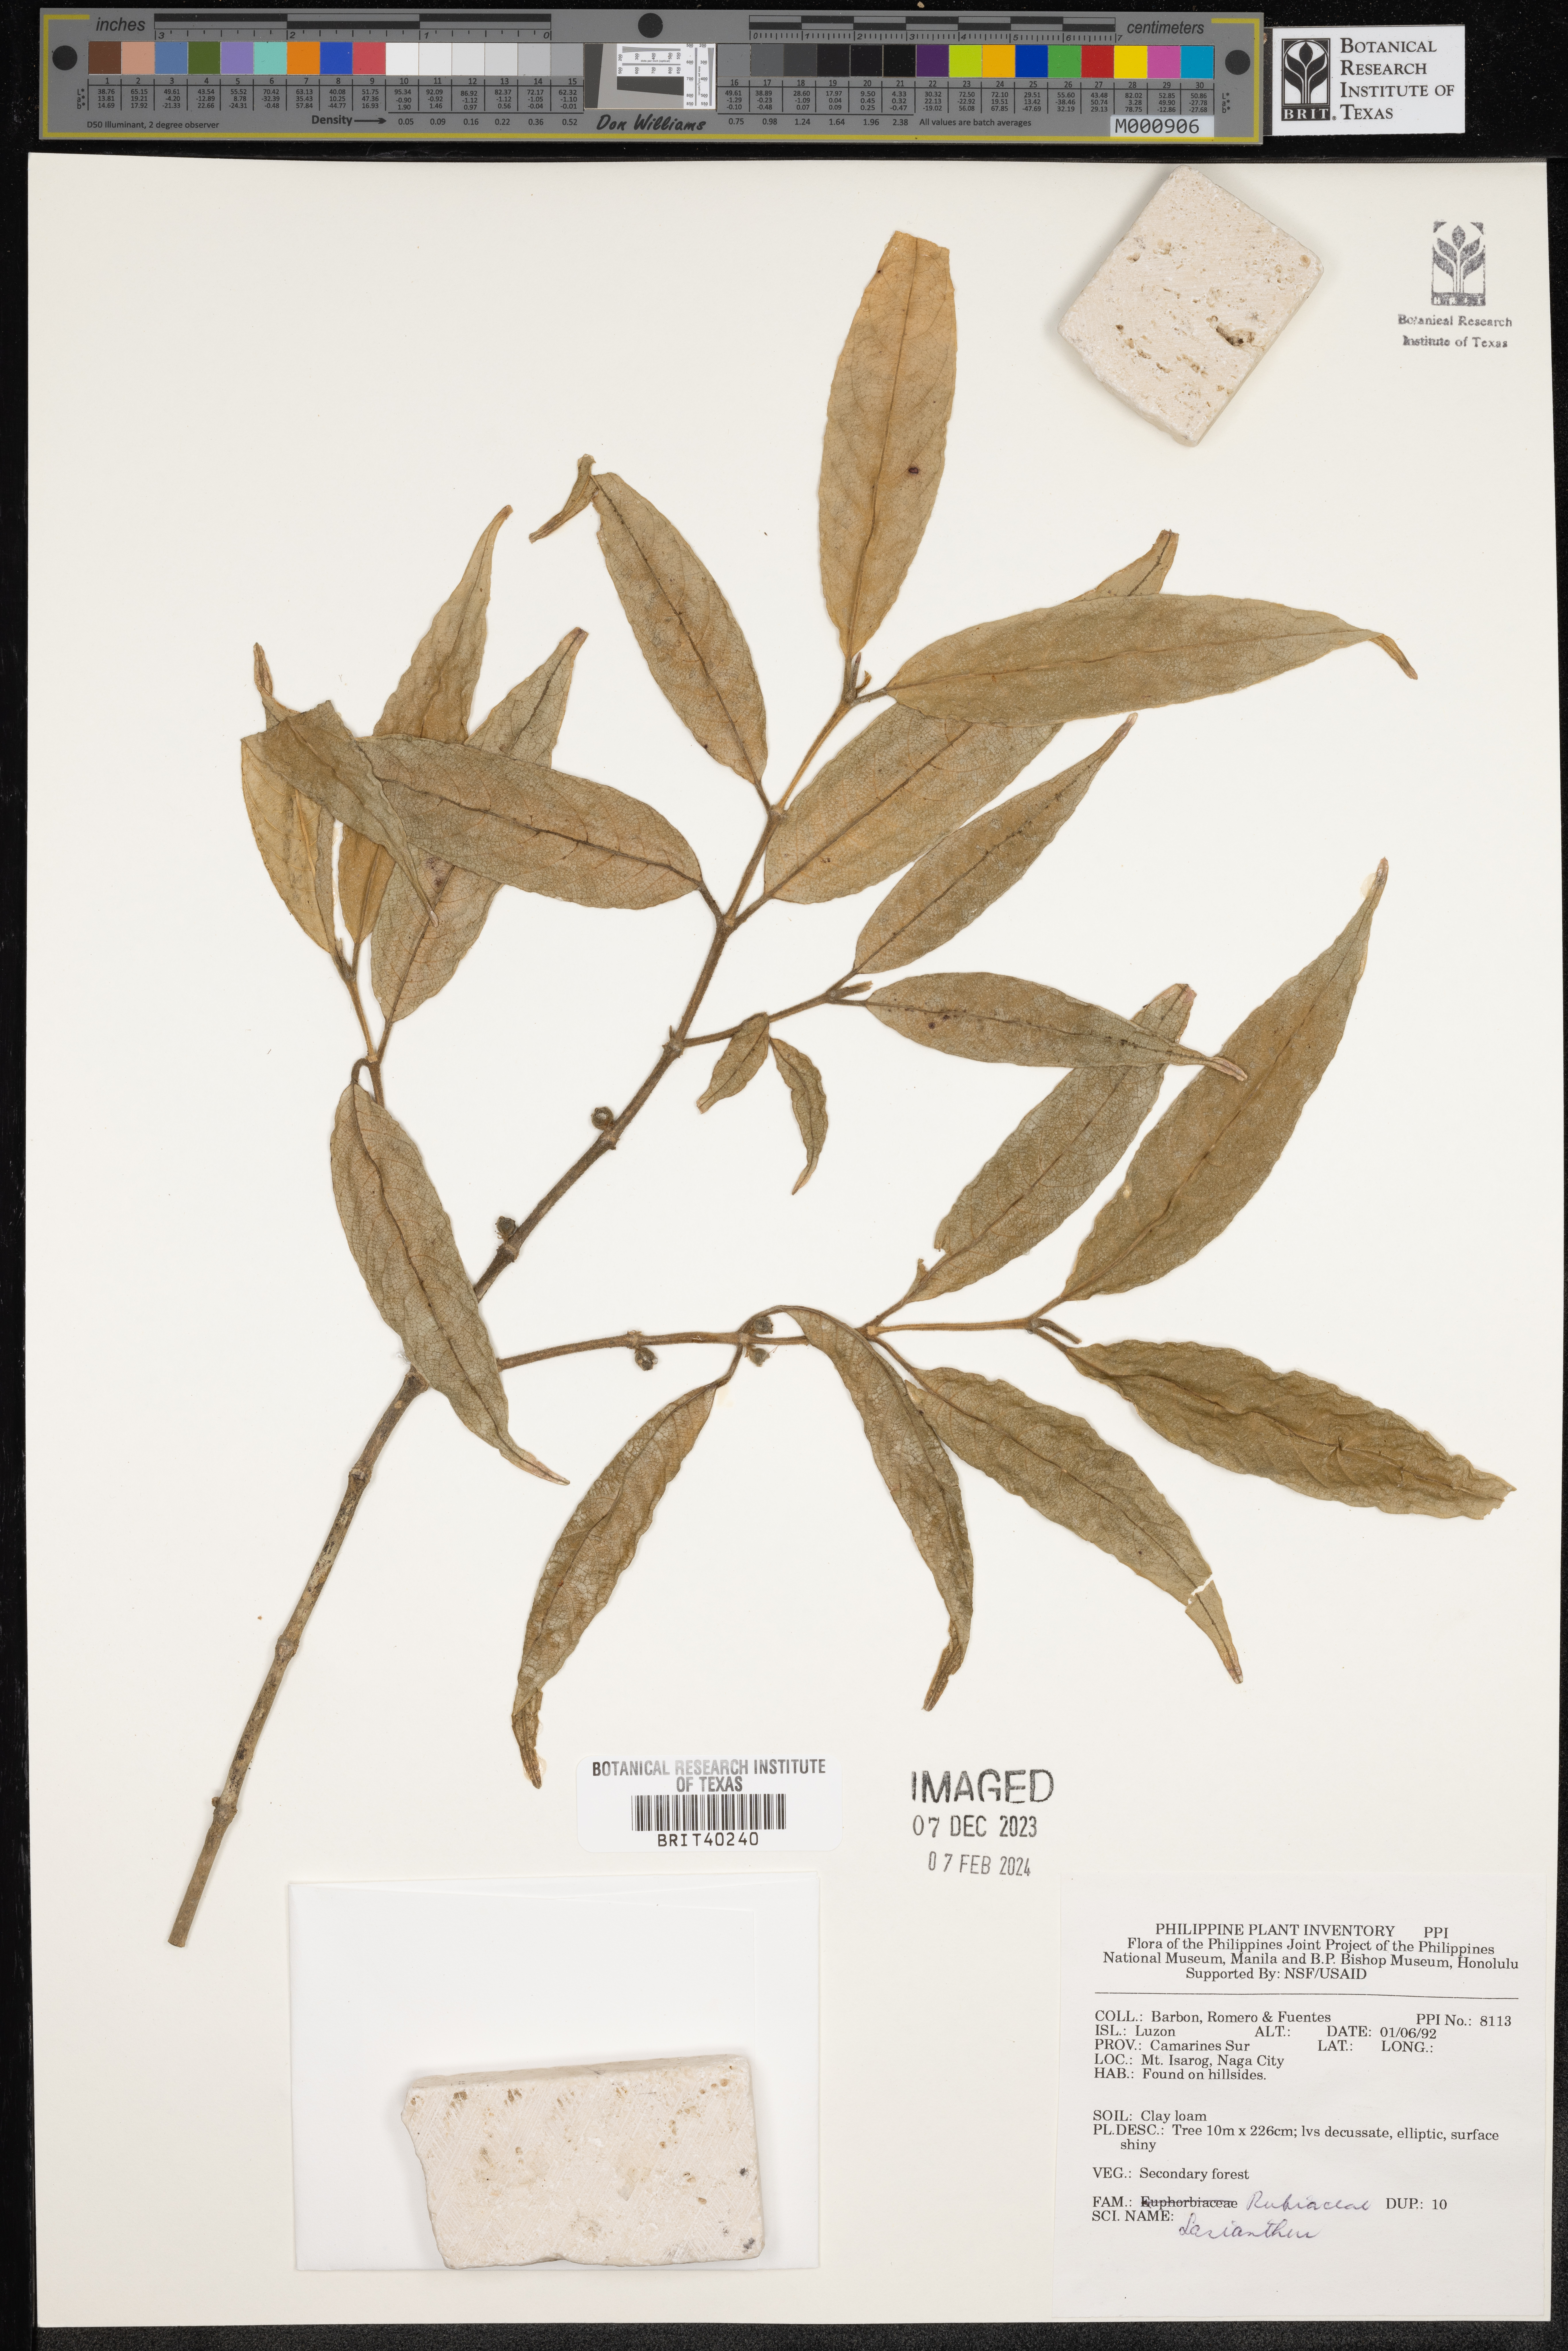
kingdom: Plantae
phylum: Tracheophyta
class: Magnoliopsida
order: Gentianales
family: Rubiaceae
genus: Lasianthus
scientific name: Lasianthus
